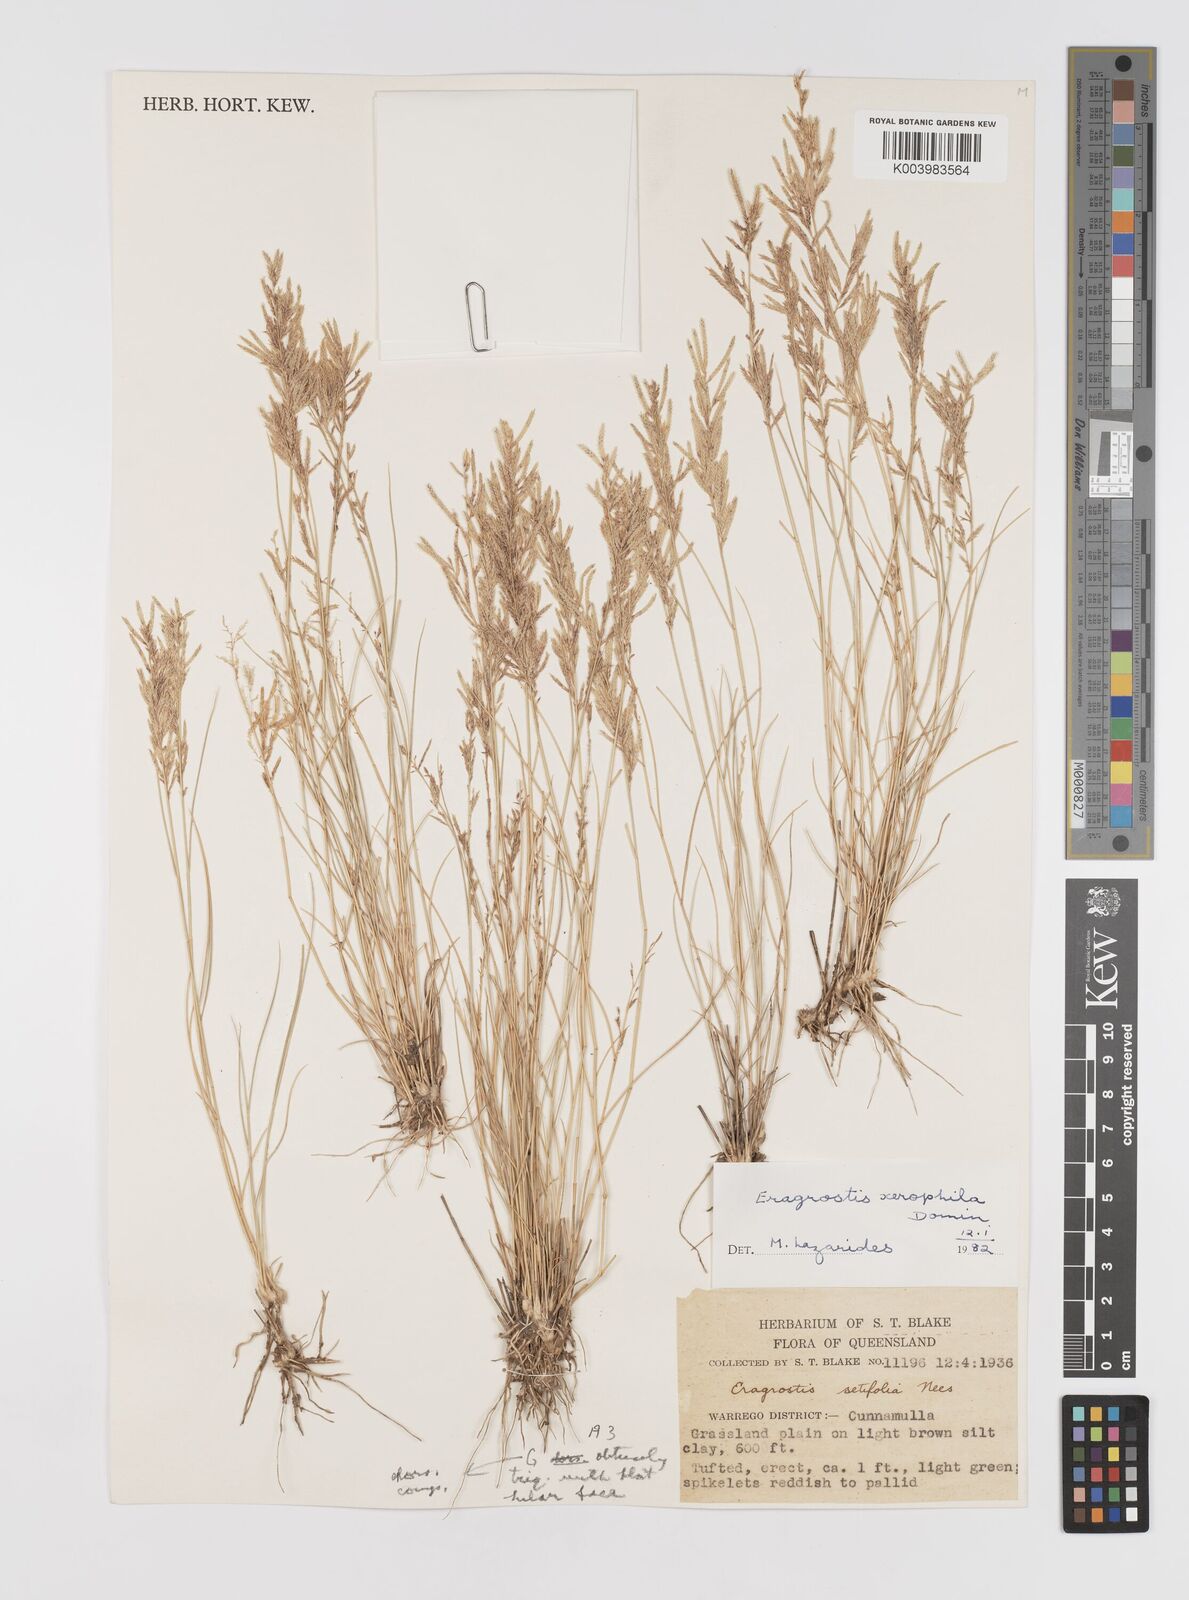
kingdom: Plantae
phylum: Tracheophyta
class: Liliopsida
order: Poales
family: Poaceae
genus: Eragrostis
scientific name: Eragrostis xerophila
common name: Wire wandarrie grass
